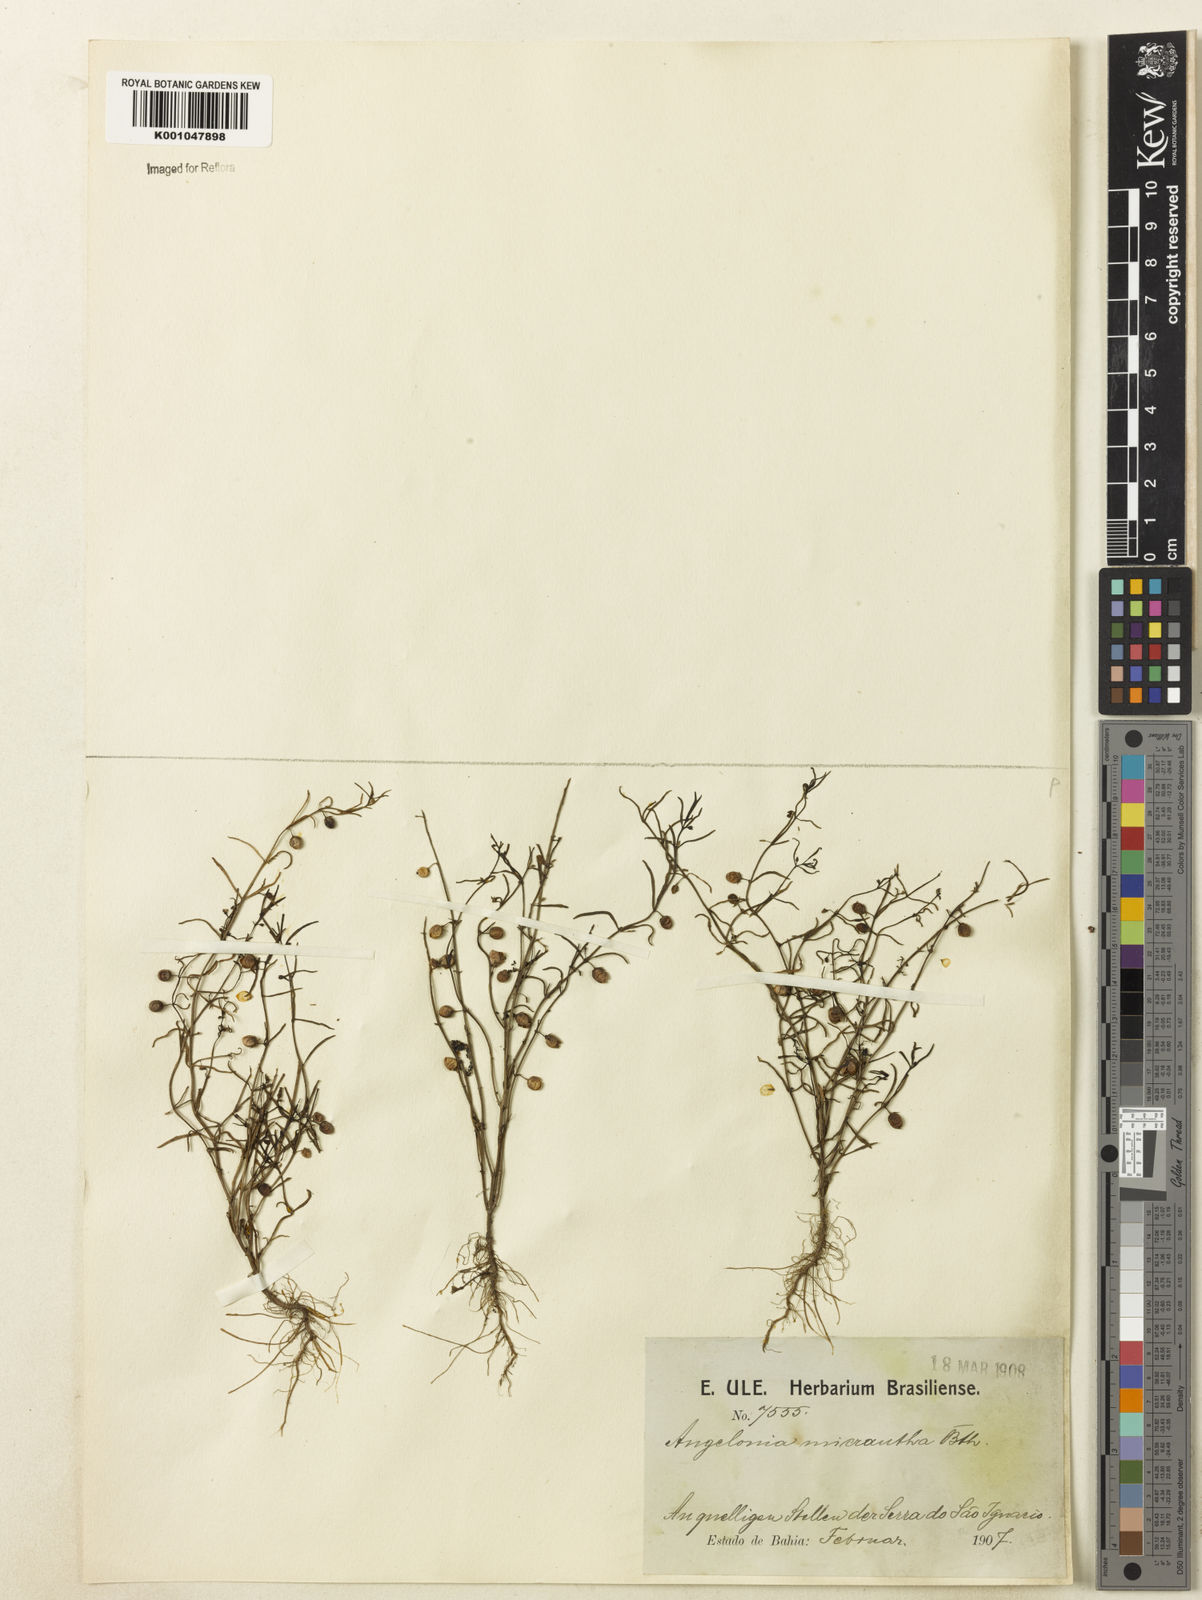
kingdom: Plantae
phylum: Tracheophyta
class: Magnoliopsida
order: Lamiales
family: Plantaginaceae
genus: Angelonia
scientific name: Angelonia micrantha
